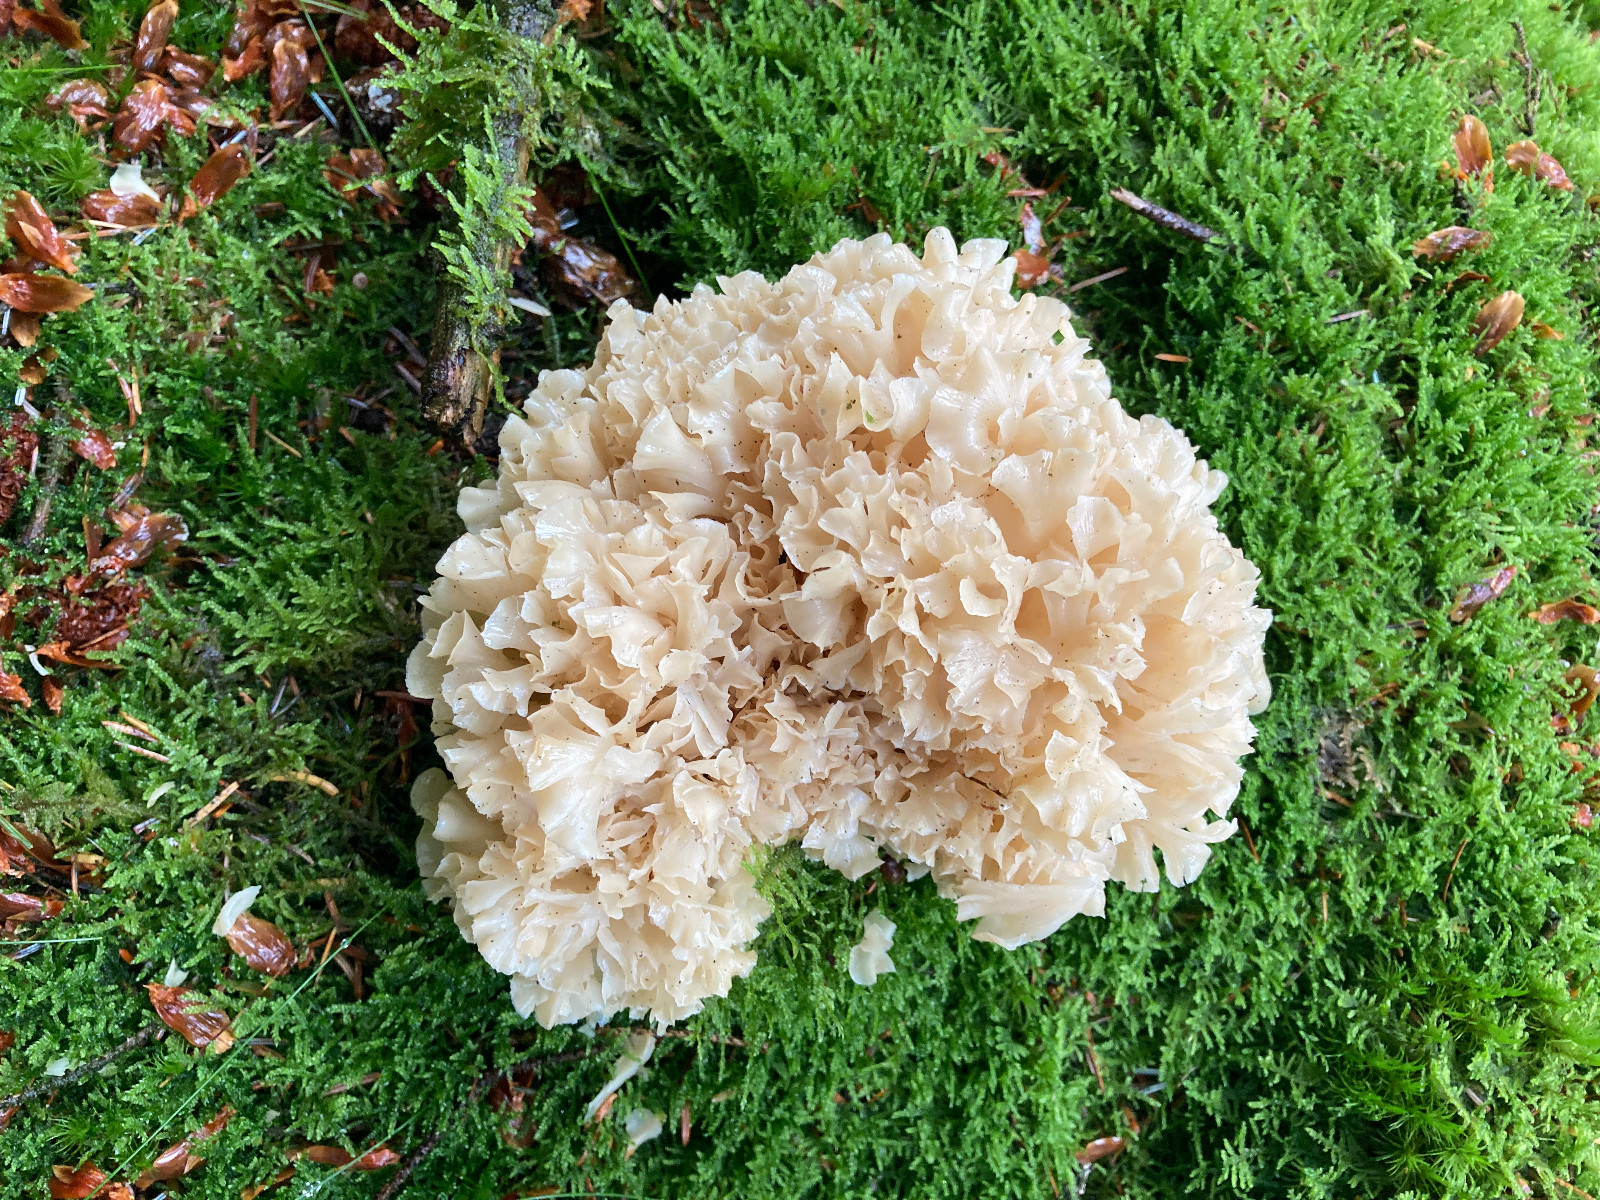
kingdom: Fungi
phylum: Basidiomycota
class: Agaricomycetes
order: Polyporales
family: Sparassidaceae
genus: Sparassis
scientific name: Sparassis crispa
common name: kruset blomkålssvamp
